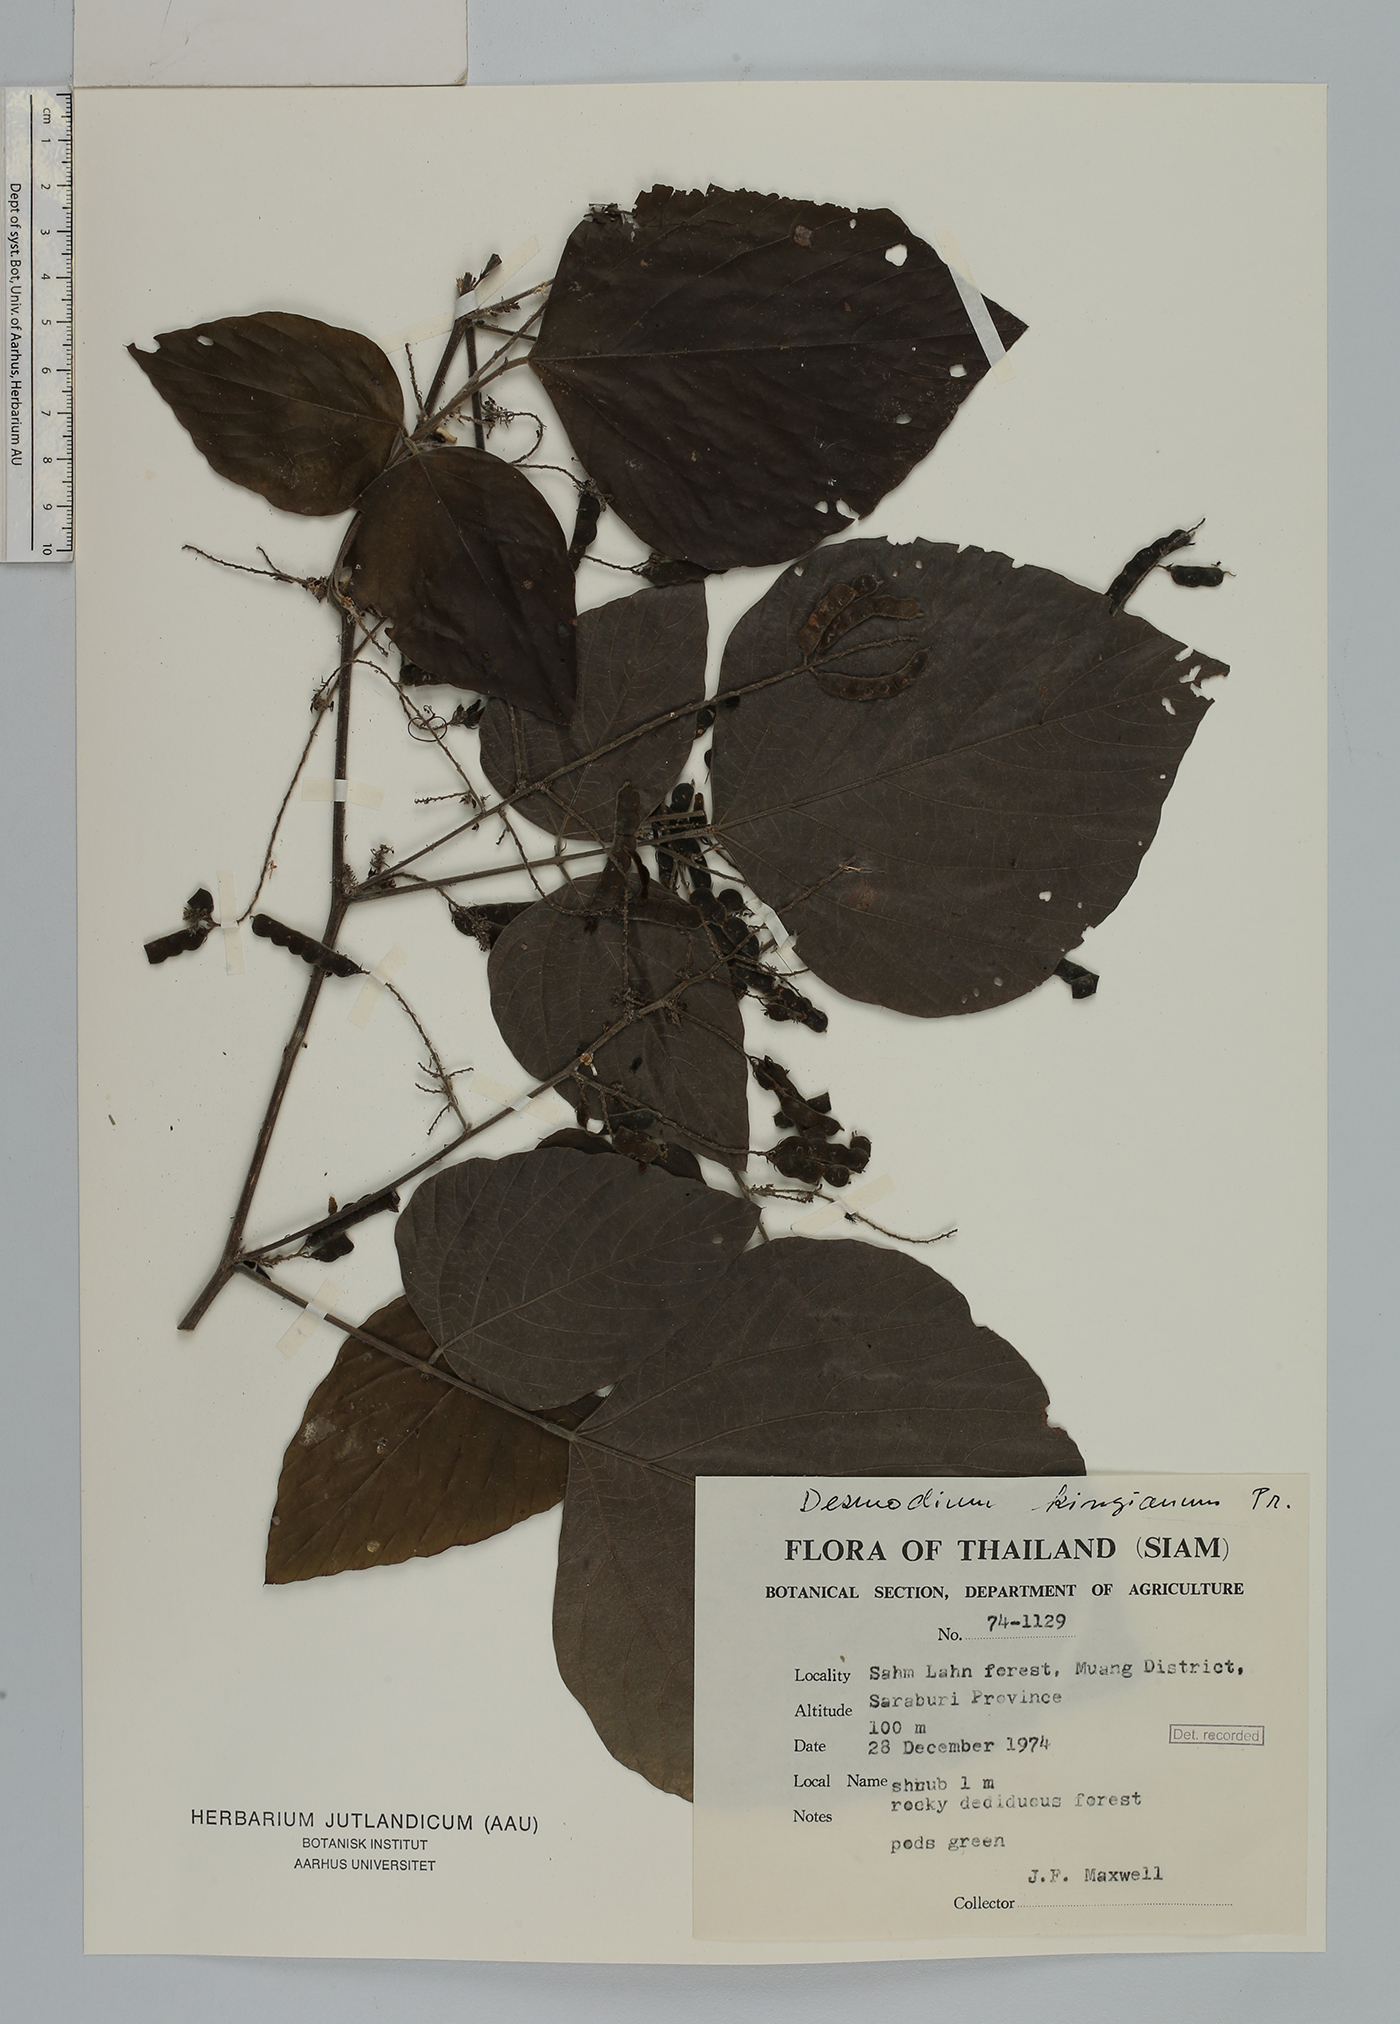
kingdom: Plantae
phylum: Tracheophyta
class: Magnoliopsida
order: Fabales
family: Fabaceae
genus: Daprainia
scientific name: Daprainia kingiana
